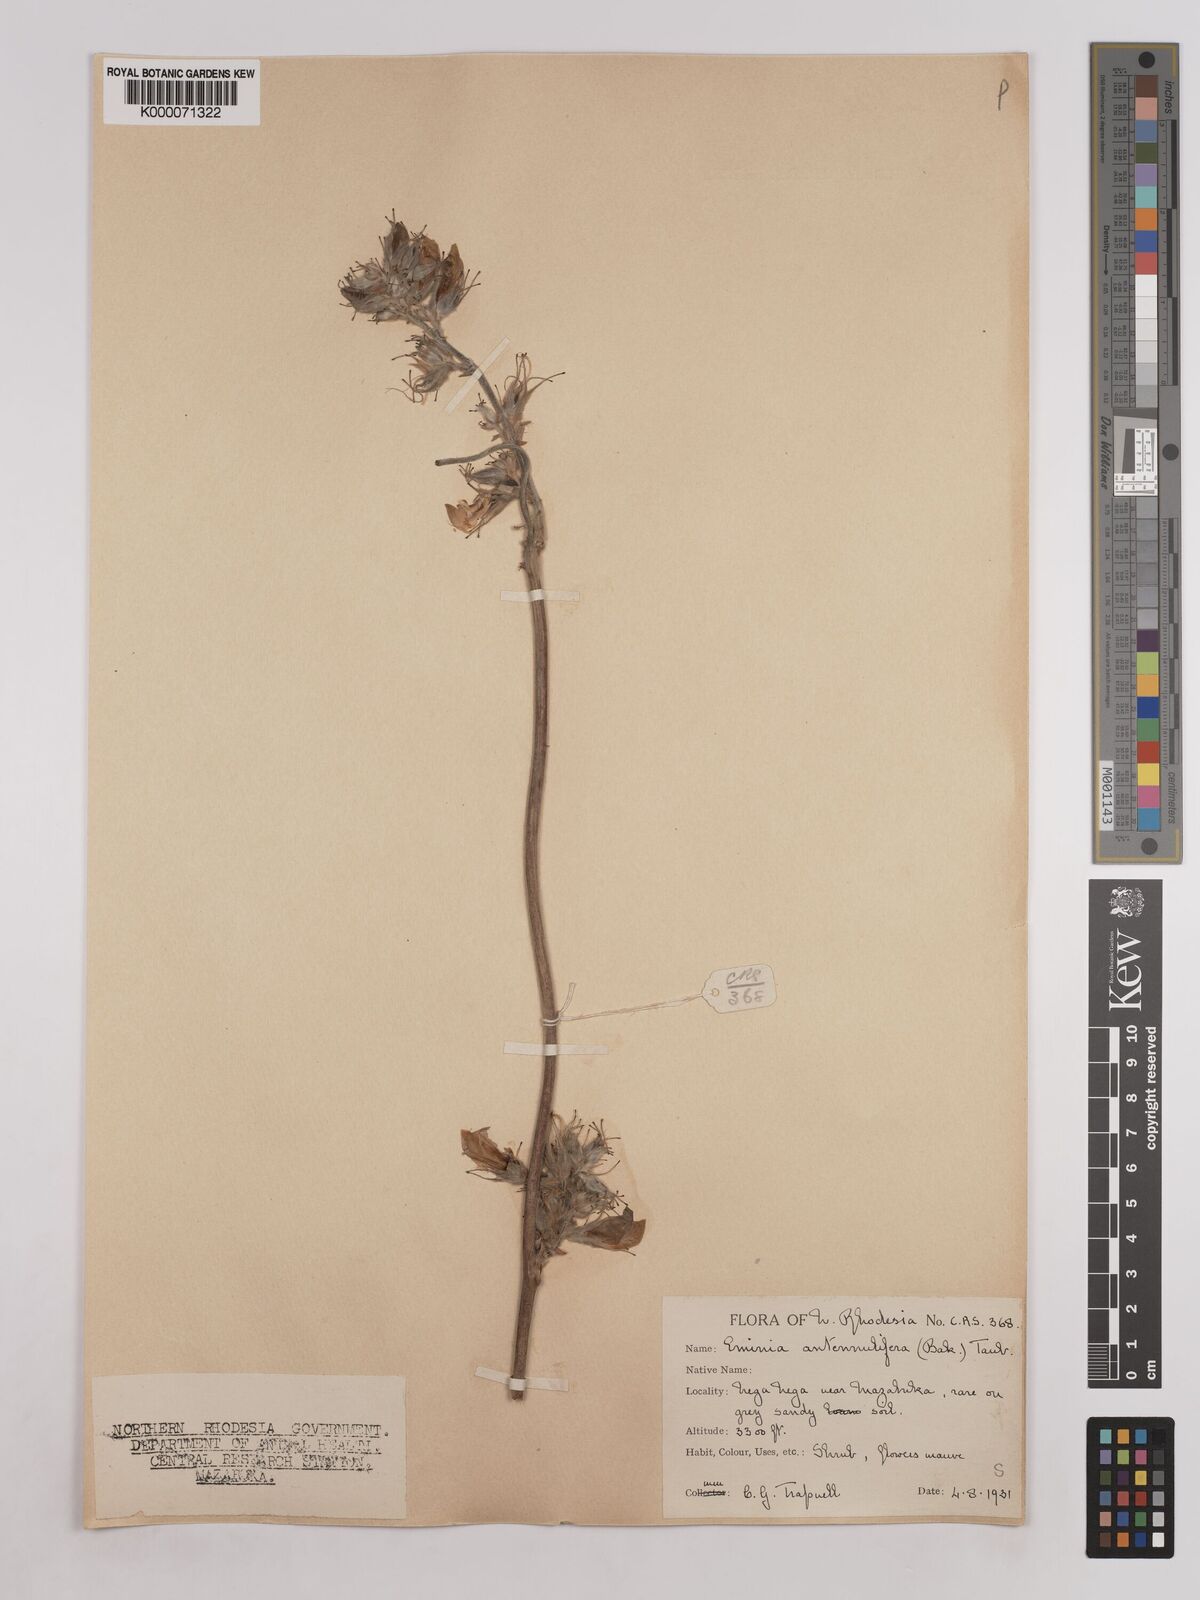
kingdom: Plantae
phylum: Tracheophyta
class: Magnoliopsida
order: Fabales
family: Fabaceae
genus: Eminia
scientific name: Eminia antennulifera
